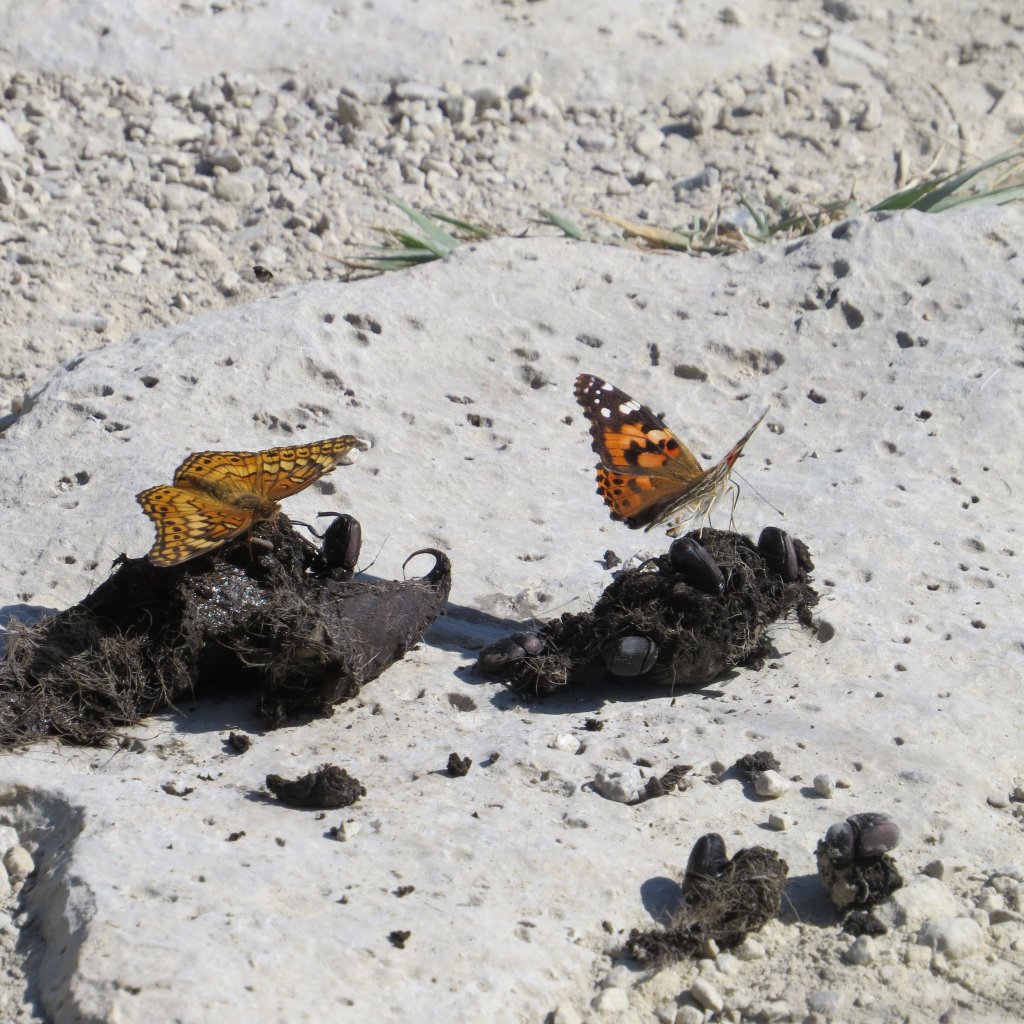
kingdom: Animalia
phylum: Arthropoda
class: Insecta
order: Lepidoptera
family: Nymphalidae
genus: Euptoieta
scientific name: Euptoieta claudia
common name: Variegated Fritillary
